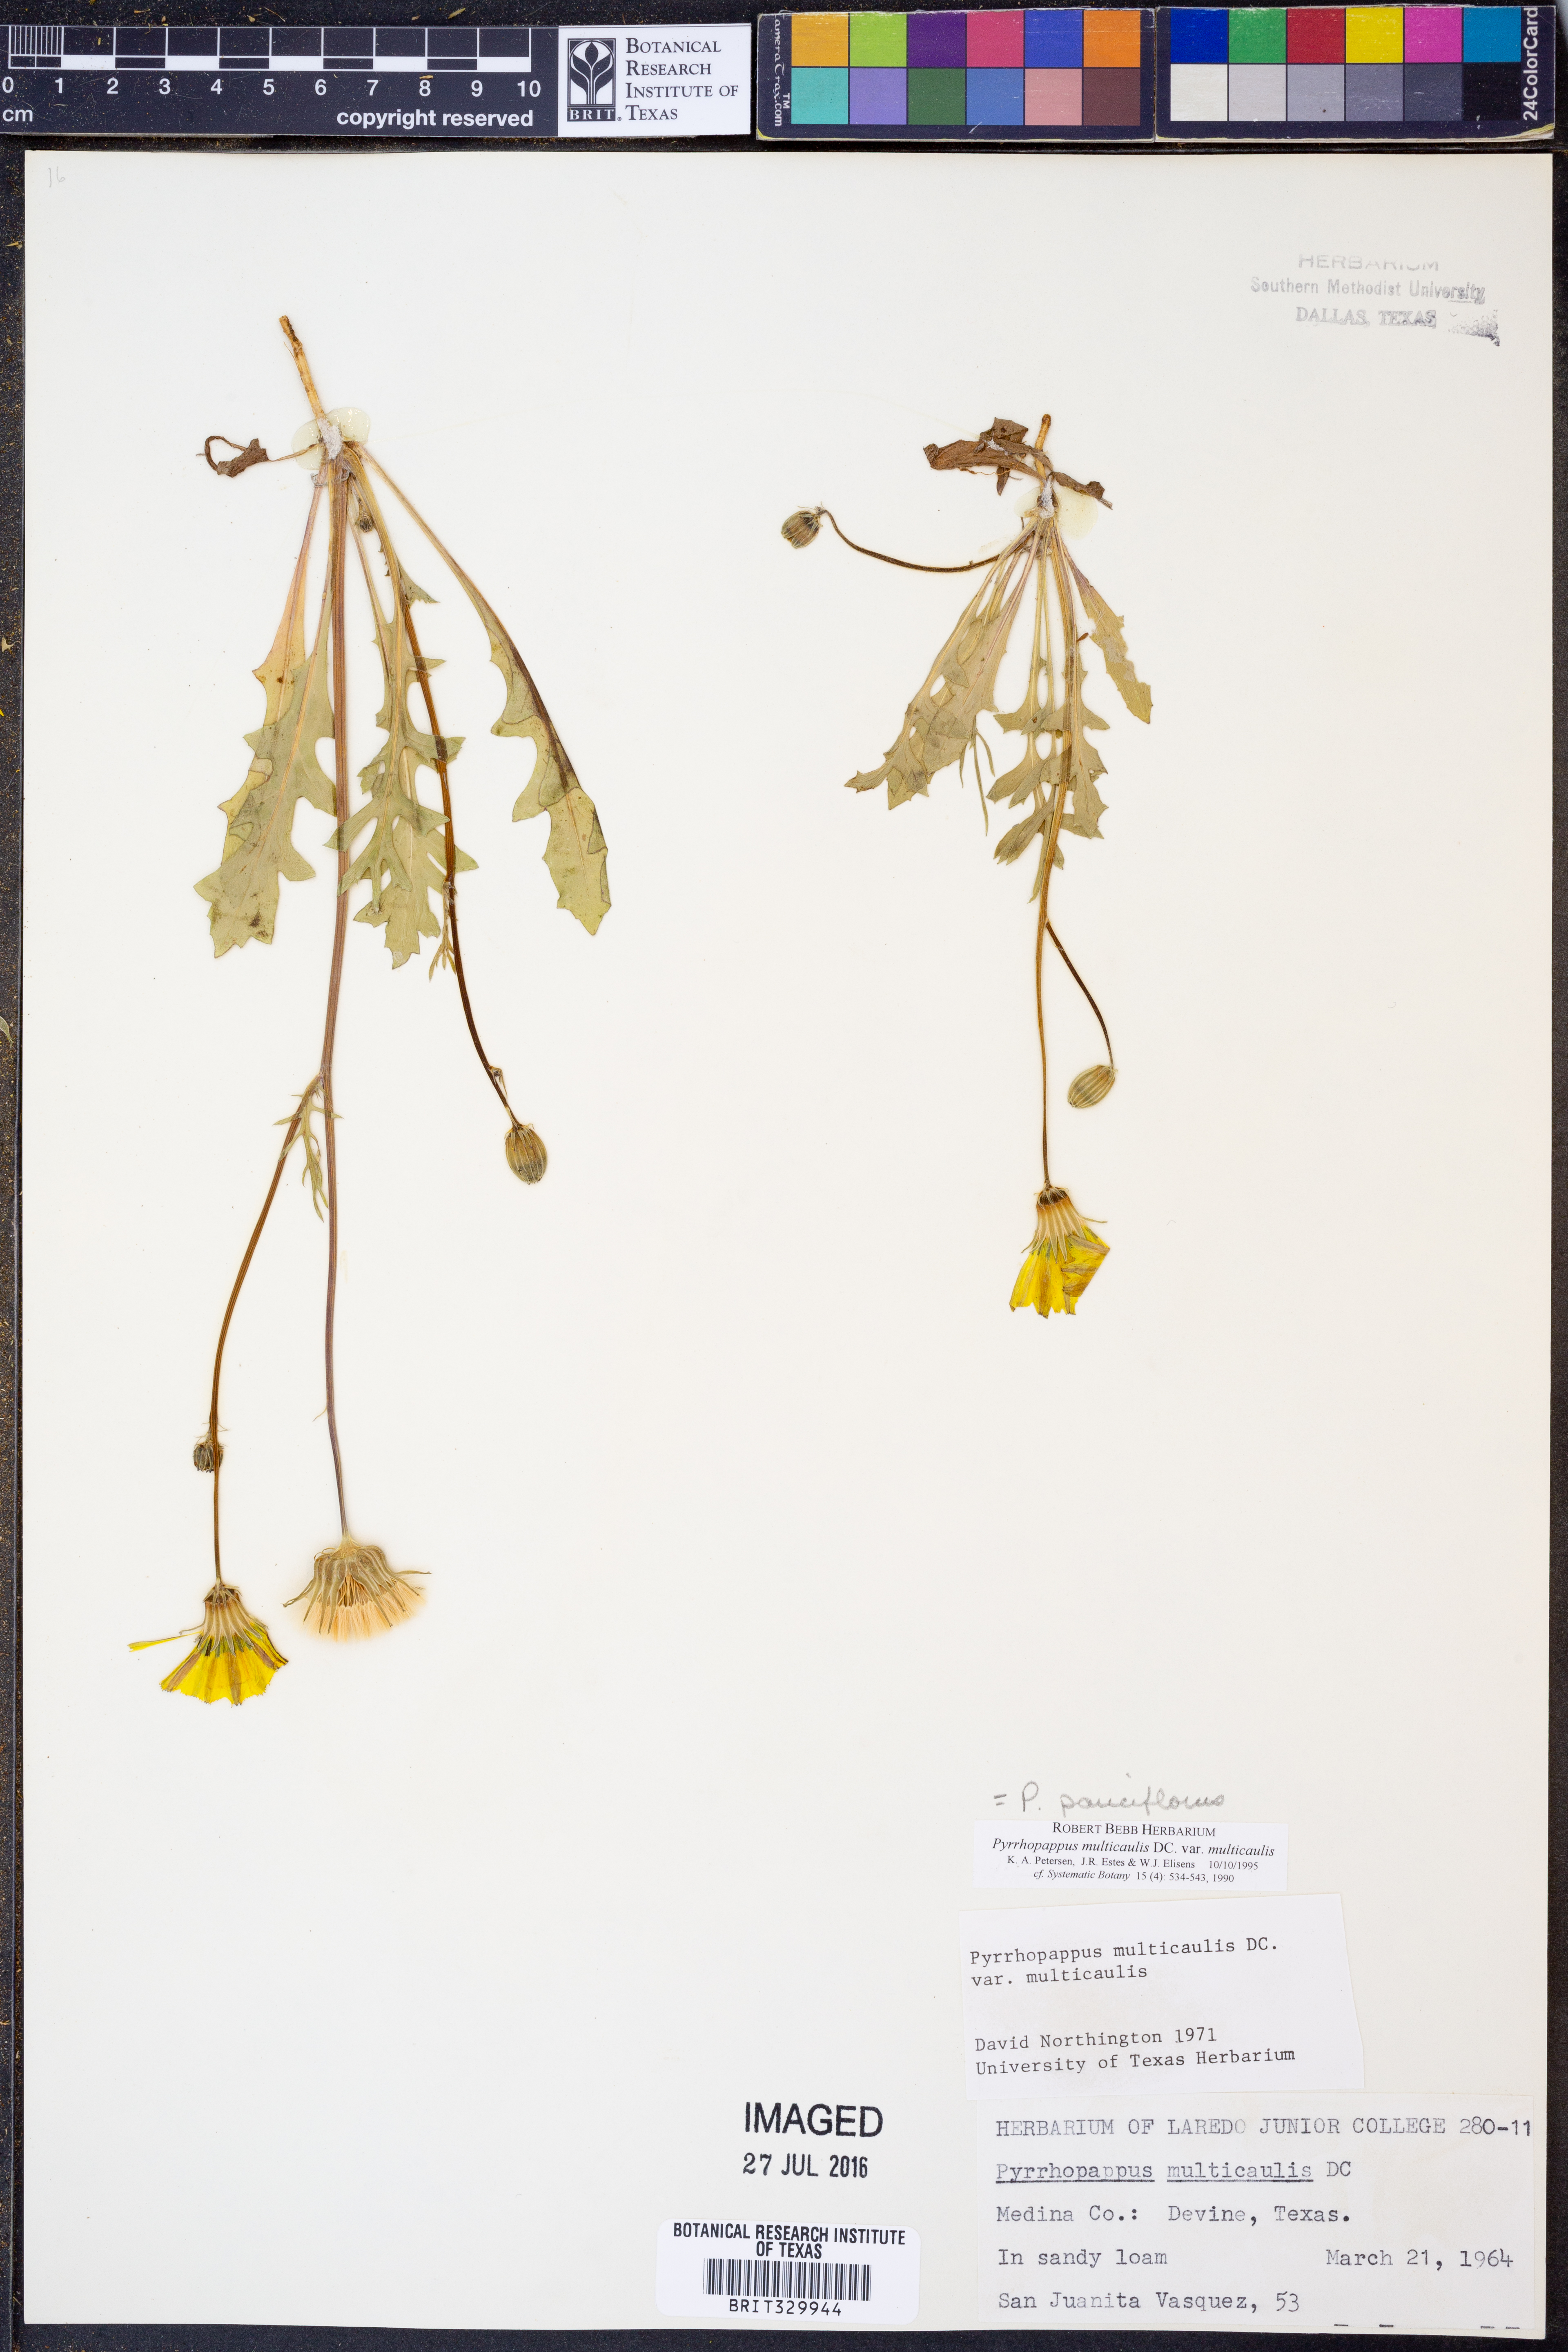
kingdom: Plantae
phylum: Tracheophyta
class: Magnoliopsida
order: Asterales
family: Asteraceae
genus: Pyrrhopappus
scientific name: Pyrrhopappus pauciflorus
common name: Texas false dandelion
